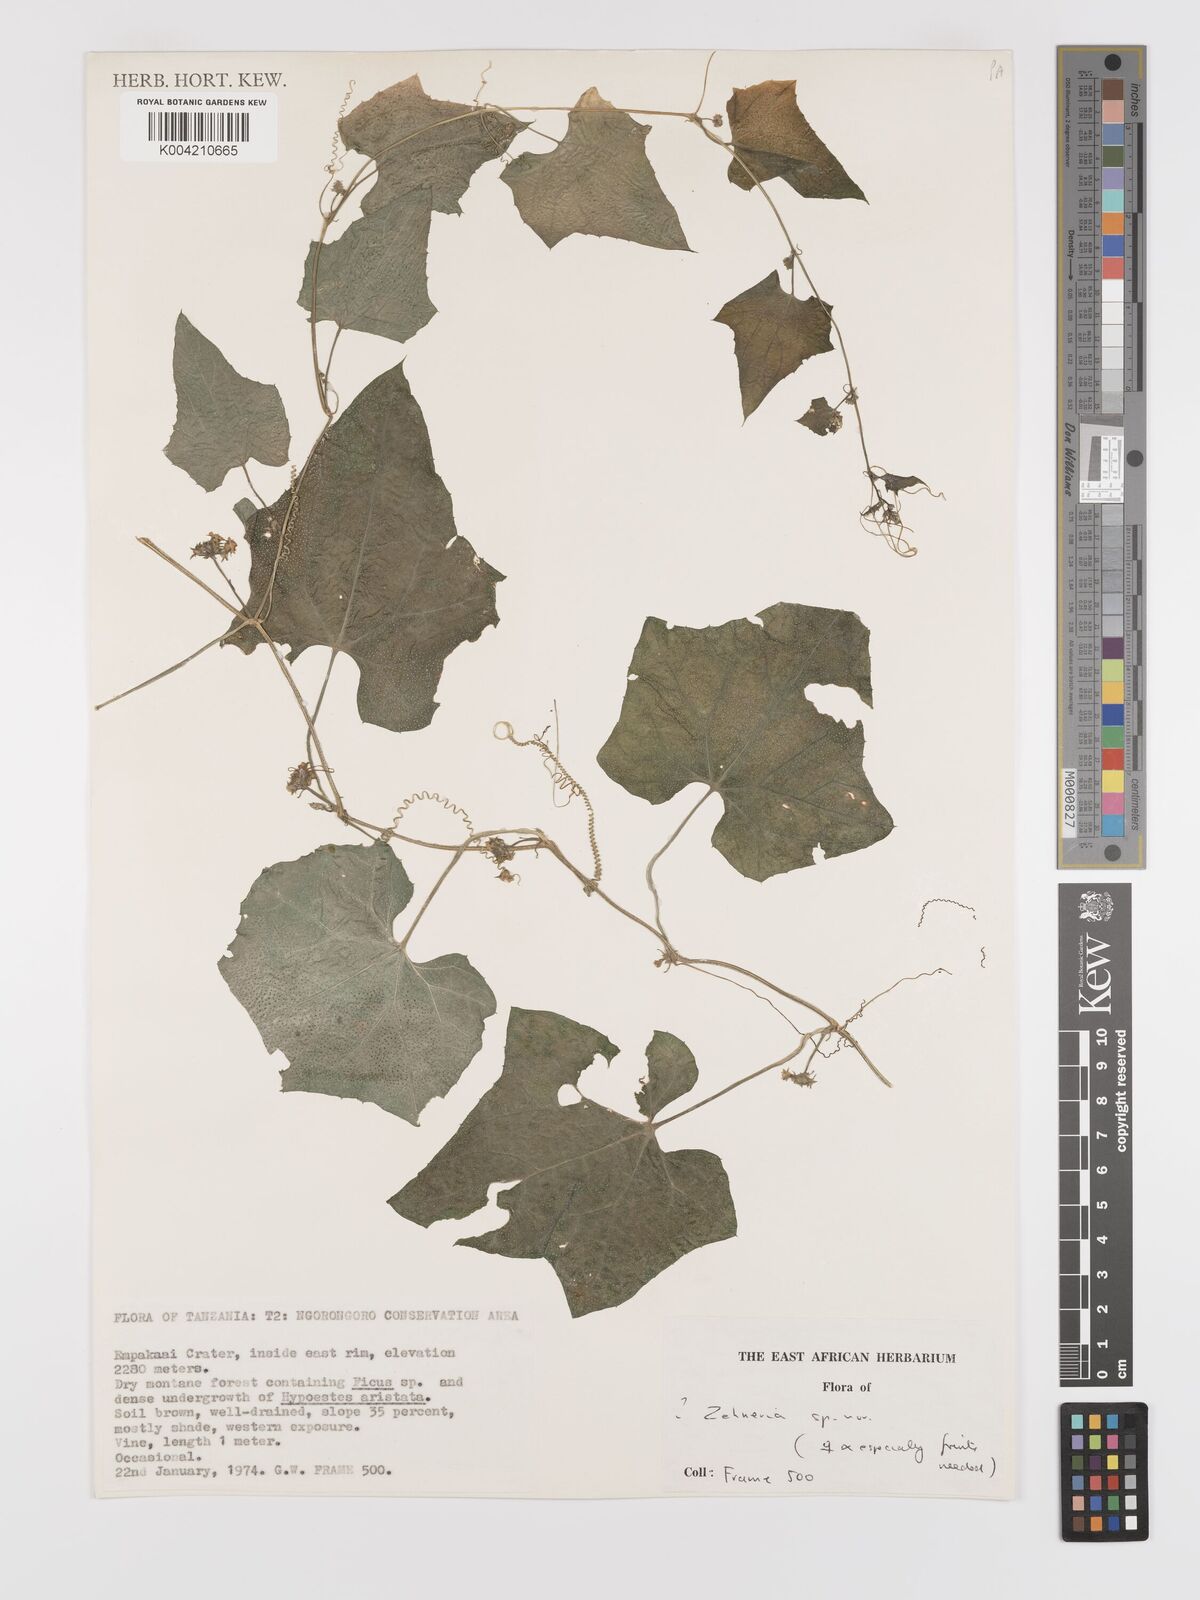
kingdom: Plantae
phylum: Tracheophyta
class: Magnoliopsida
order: Cucurbitales
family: Cucurbitaceae
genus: Zehneria
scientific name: Zehneria
